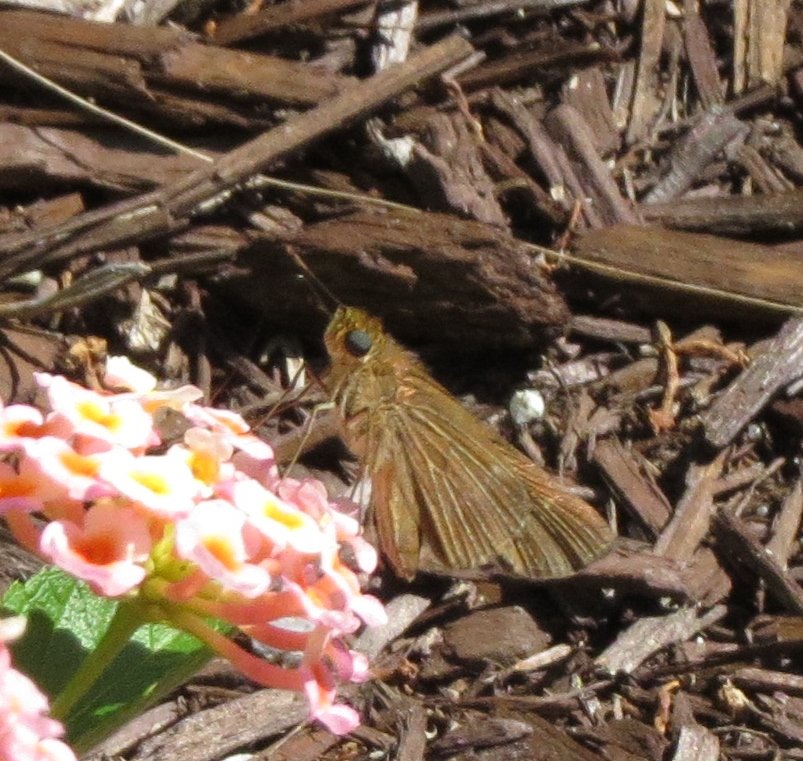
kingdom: Animalia
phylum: Arthropoda
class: Insecta
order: Lepidoptera
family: Hesperiidae
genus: Panoquina
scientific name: Panoquina ocola
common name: Ocola Skipper
